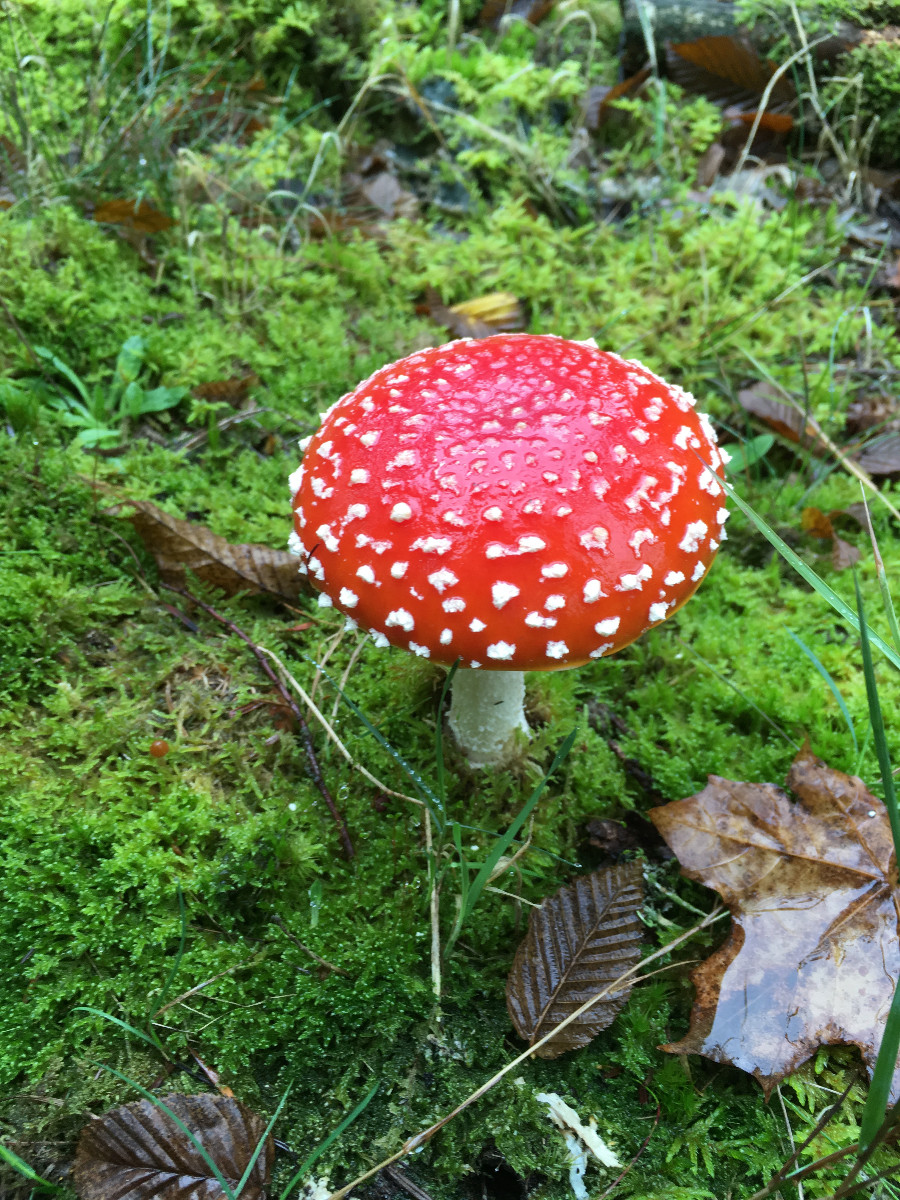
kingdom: Fungi
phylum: Basidiomycota
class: Agaricomycetes
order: Agaricales
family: Amanitaceae
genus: Amanita
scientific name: Amanita muscaria
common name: rød fluesvamp
